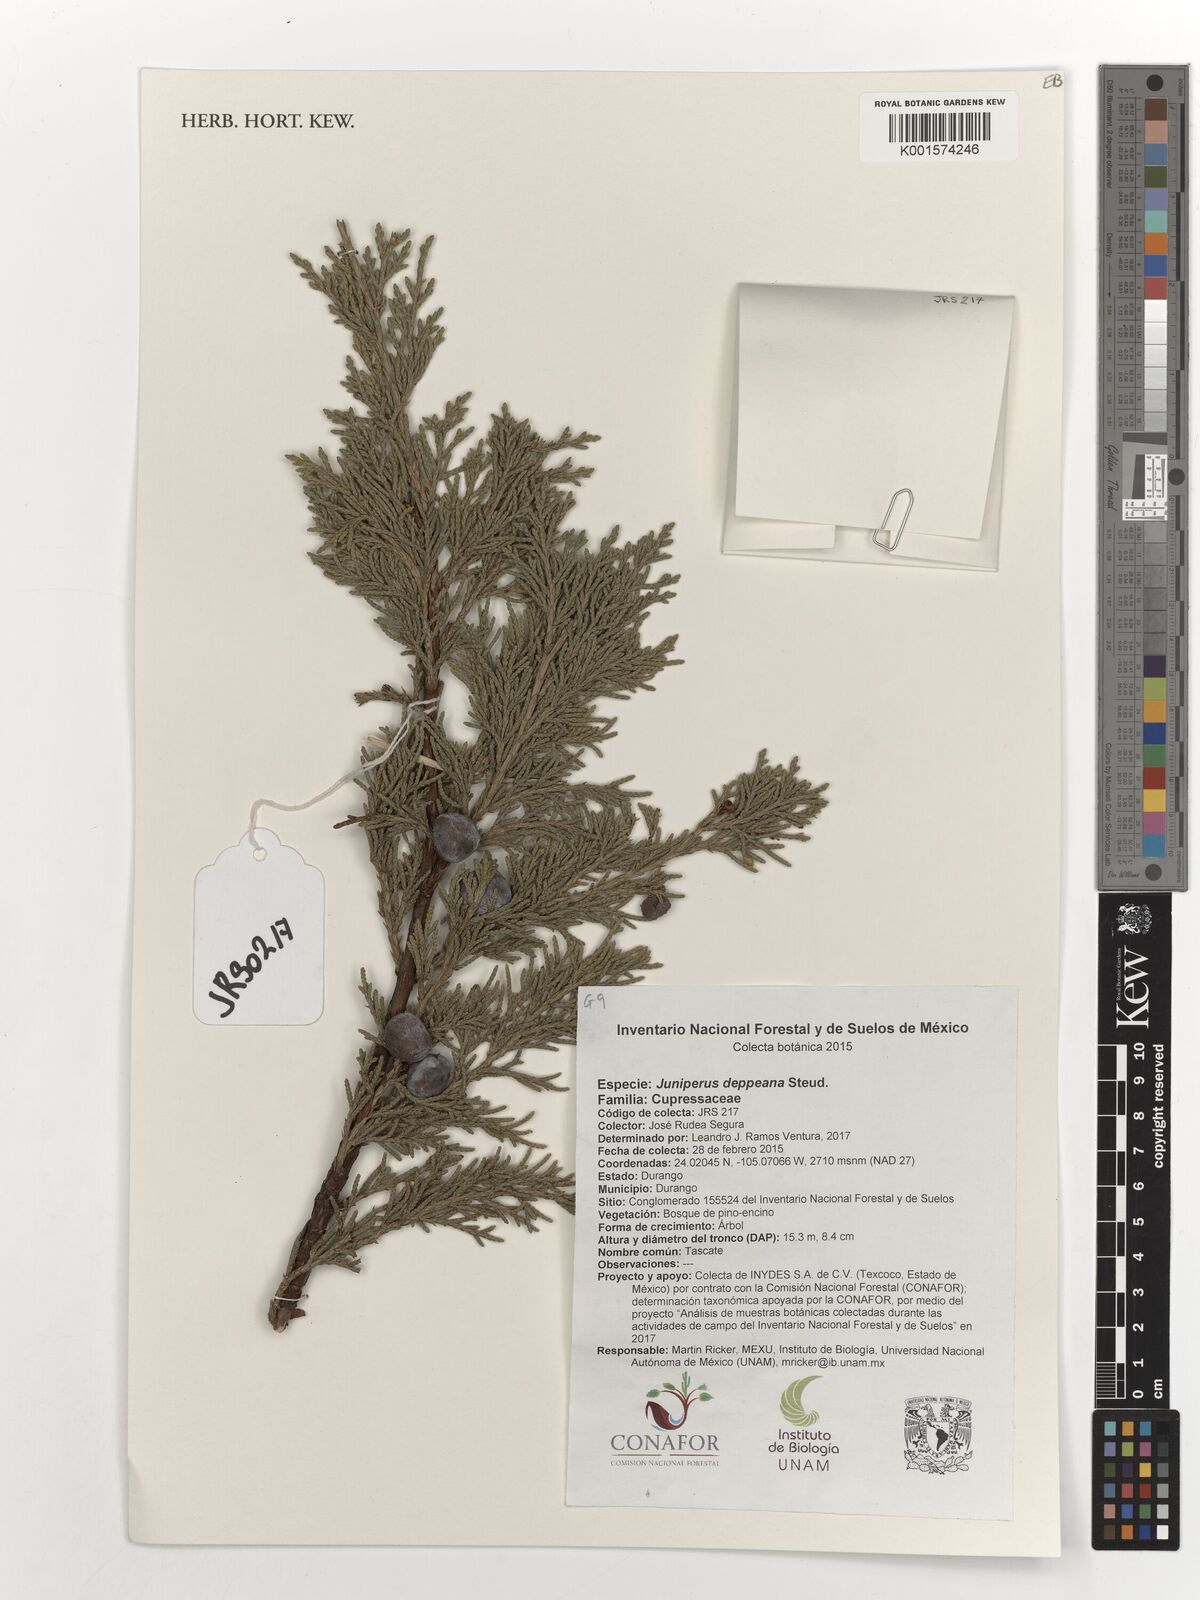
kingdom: Plantae
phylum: Tracheophyta
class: Pinopsida
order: Pinales
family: Cupressaceae
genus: Juniperus
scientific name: Juniperus deppeana
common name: Alligator juniper
